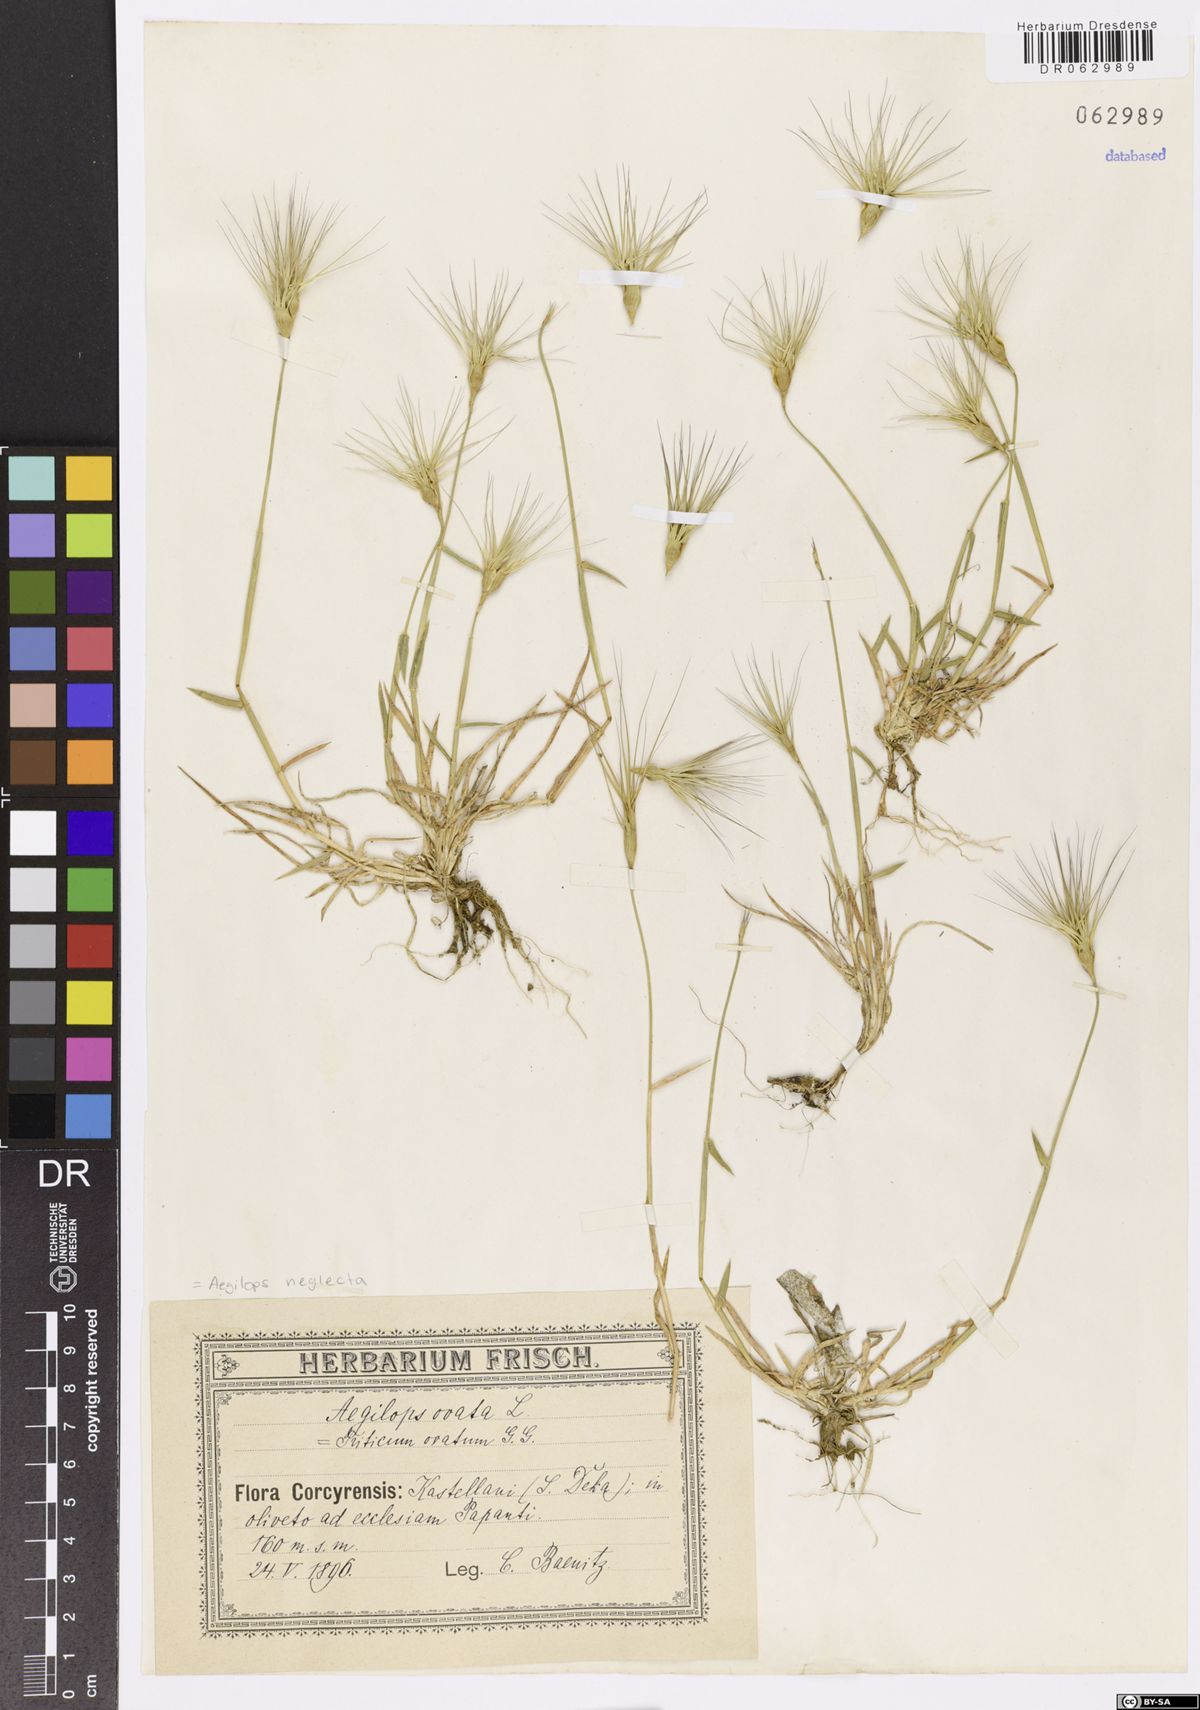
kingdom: Plantae
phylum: Tracheophyta
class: Liliopsida
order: Poales
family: Poaceae
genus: Aegilops
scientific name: Aegilops neglecta
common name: Three-awn goat grass
